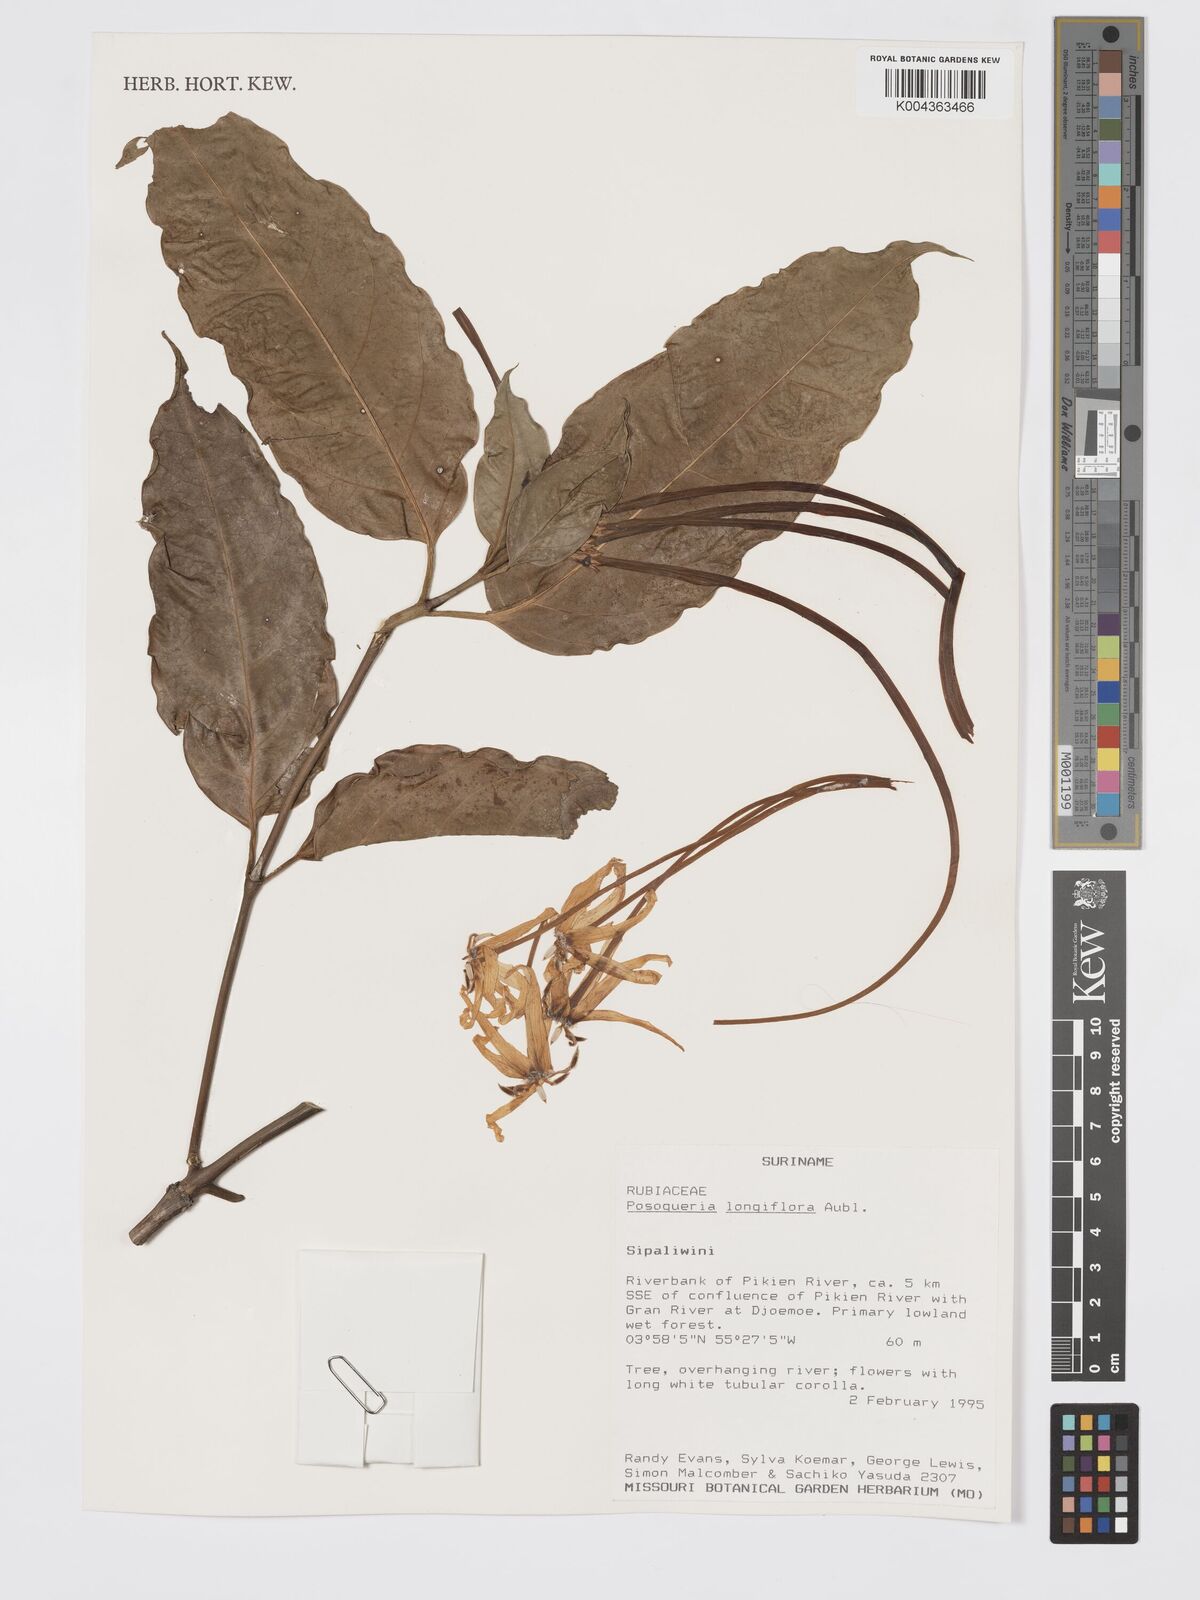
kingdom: Plantae
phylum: Tracheophyta
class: Magnoliopsida
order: Gentianales
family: Rubiaceae
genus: Posoqueria
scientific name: Posoqueria
